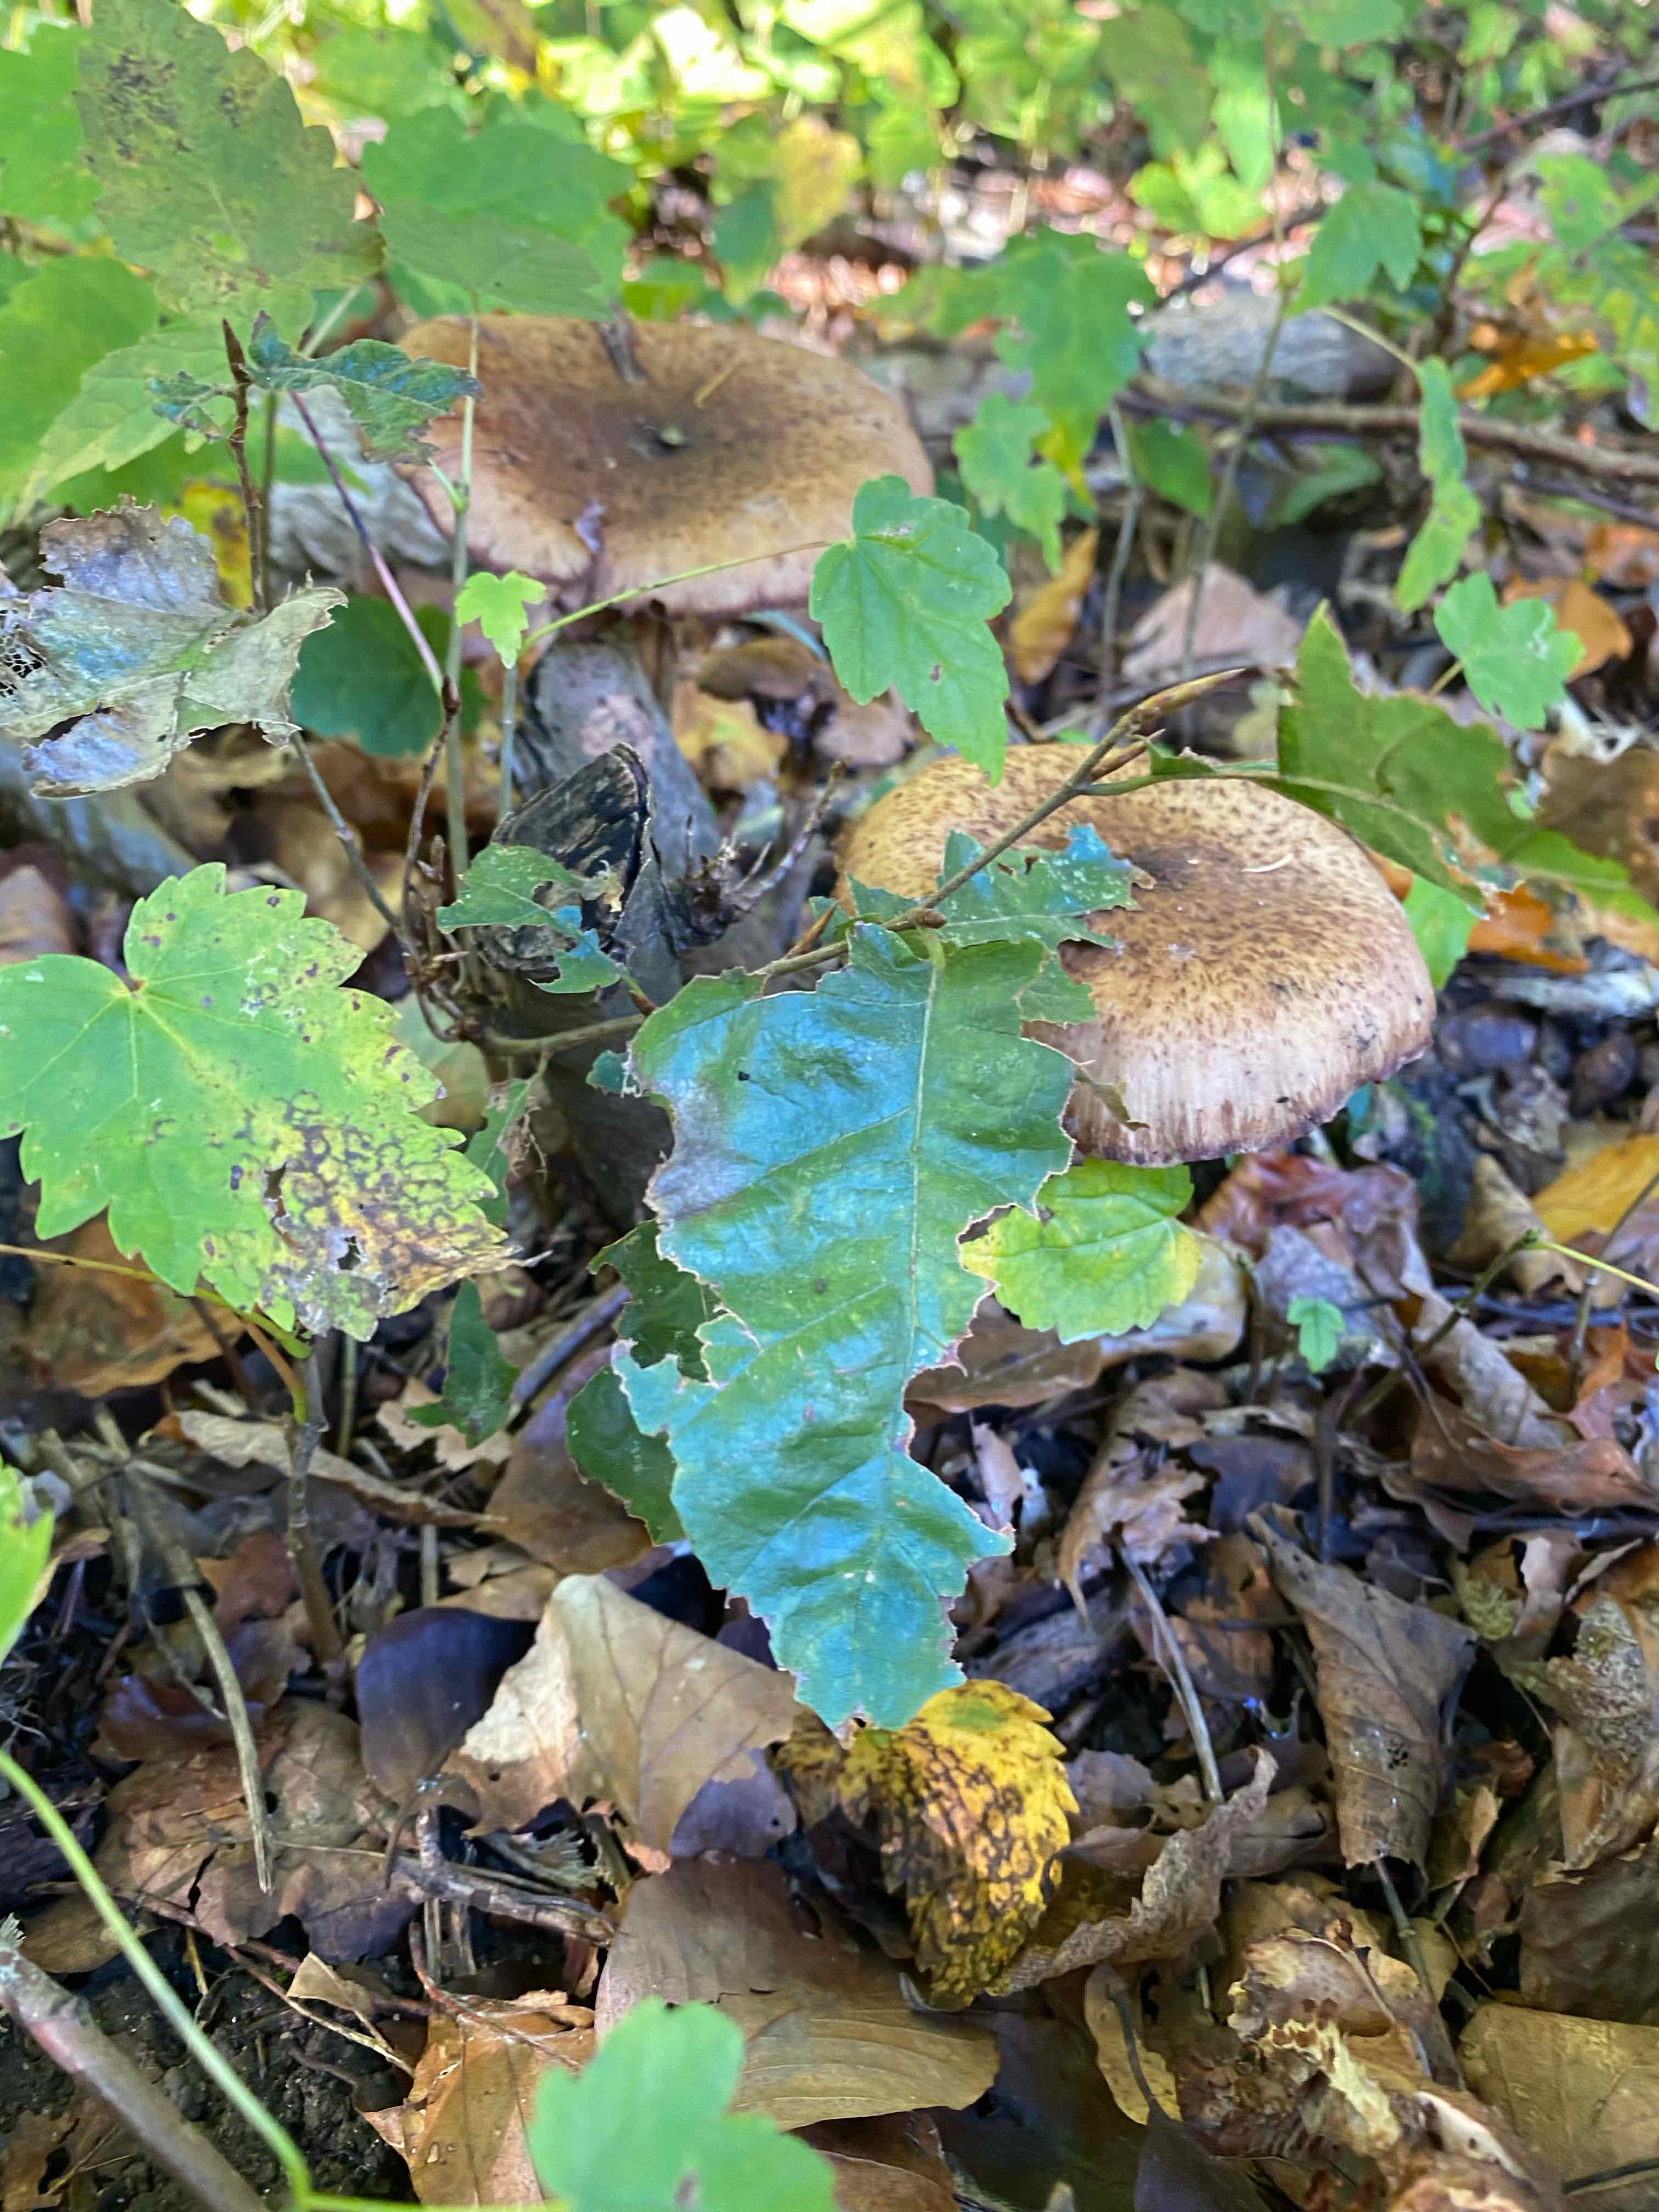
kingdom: Fungi
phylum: Basidiomycota
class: Agaricomycetes
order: Agaricales
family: Physalacriaceae
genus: Armillaria
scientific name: Armillaria
